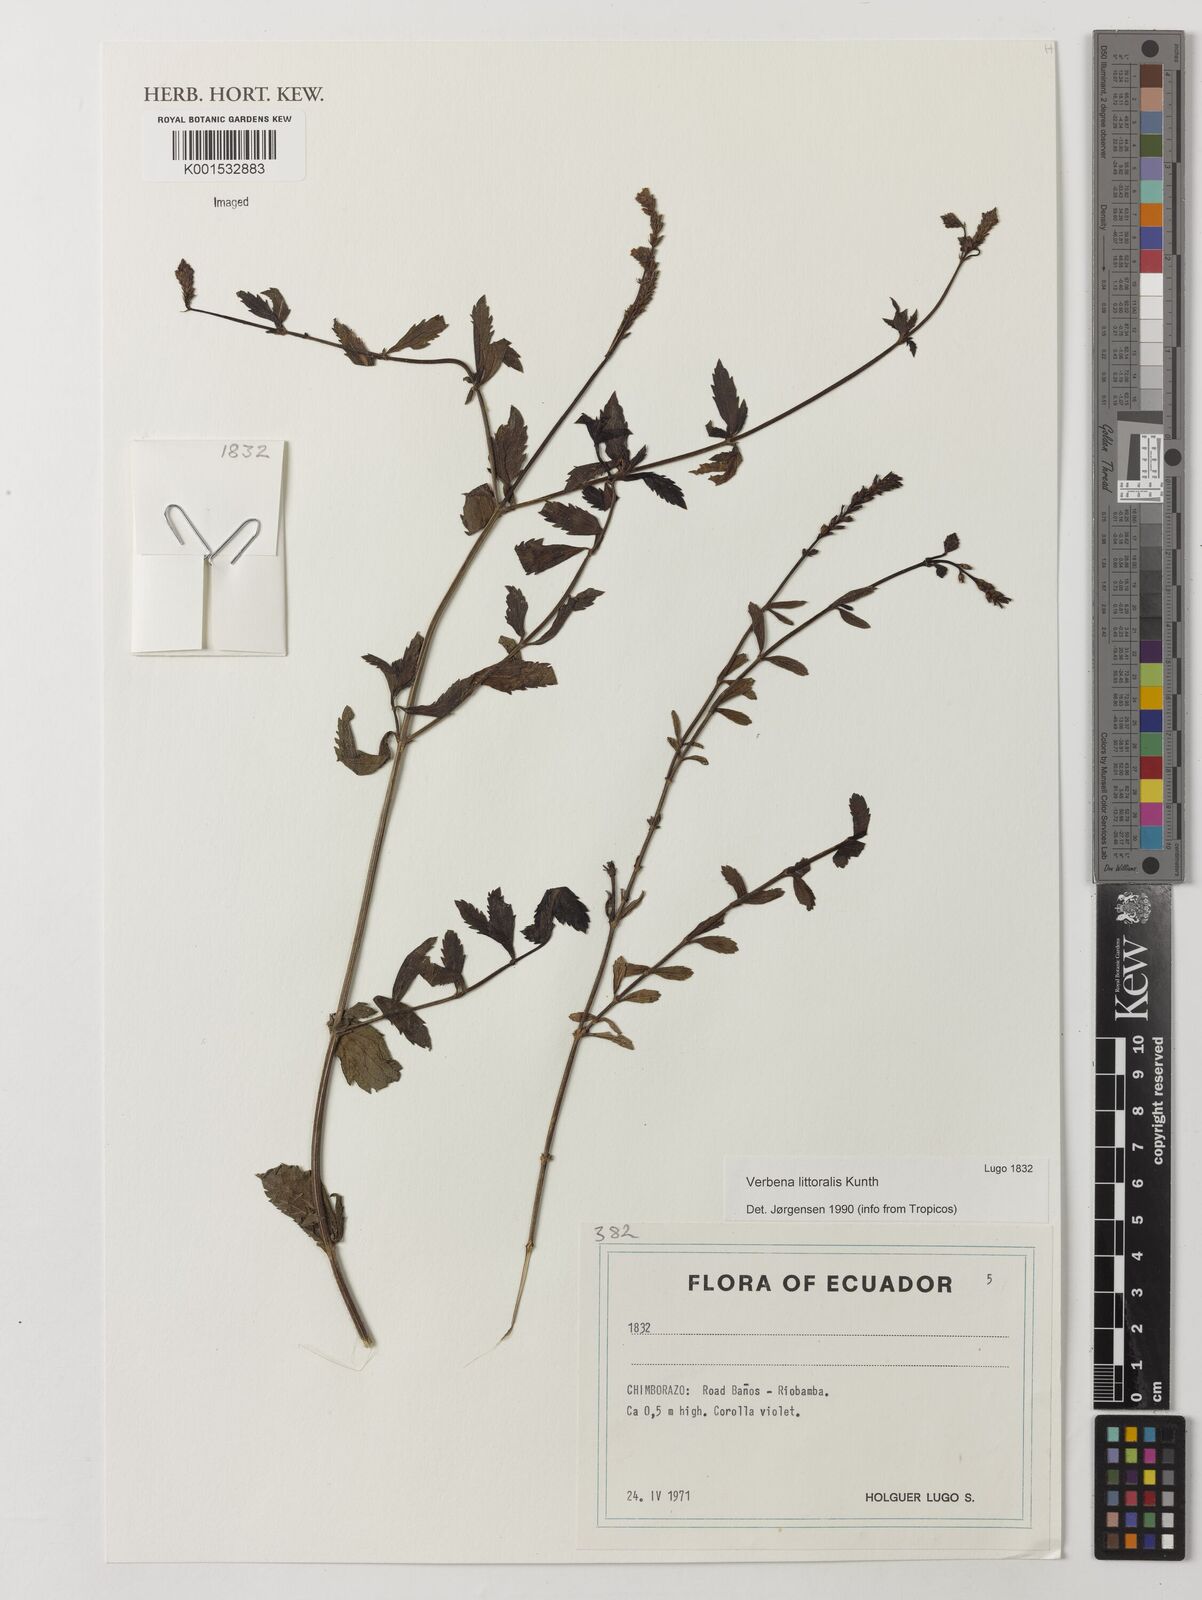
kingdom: Plantae
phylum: Tracheophyta
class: Magnoliopsida
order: Lamiales
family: Verbenaceae
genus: Verbena
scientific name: Verbena litoralis
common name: Seashore vervain
